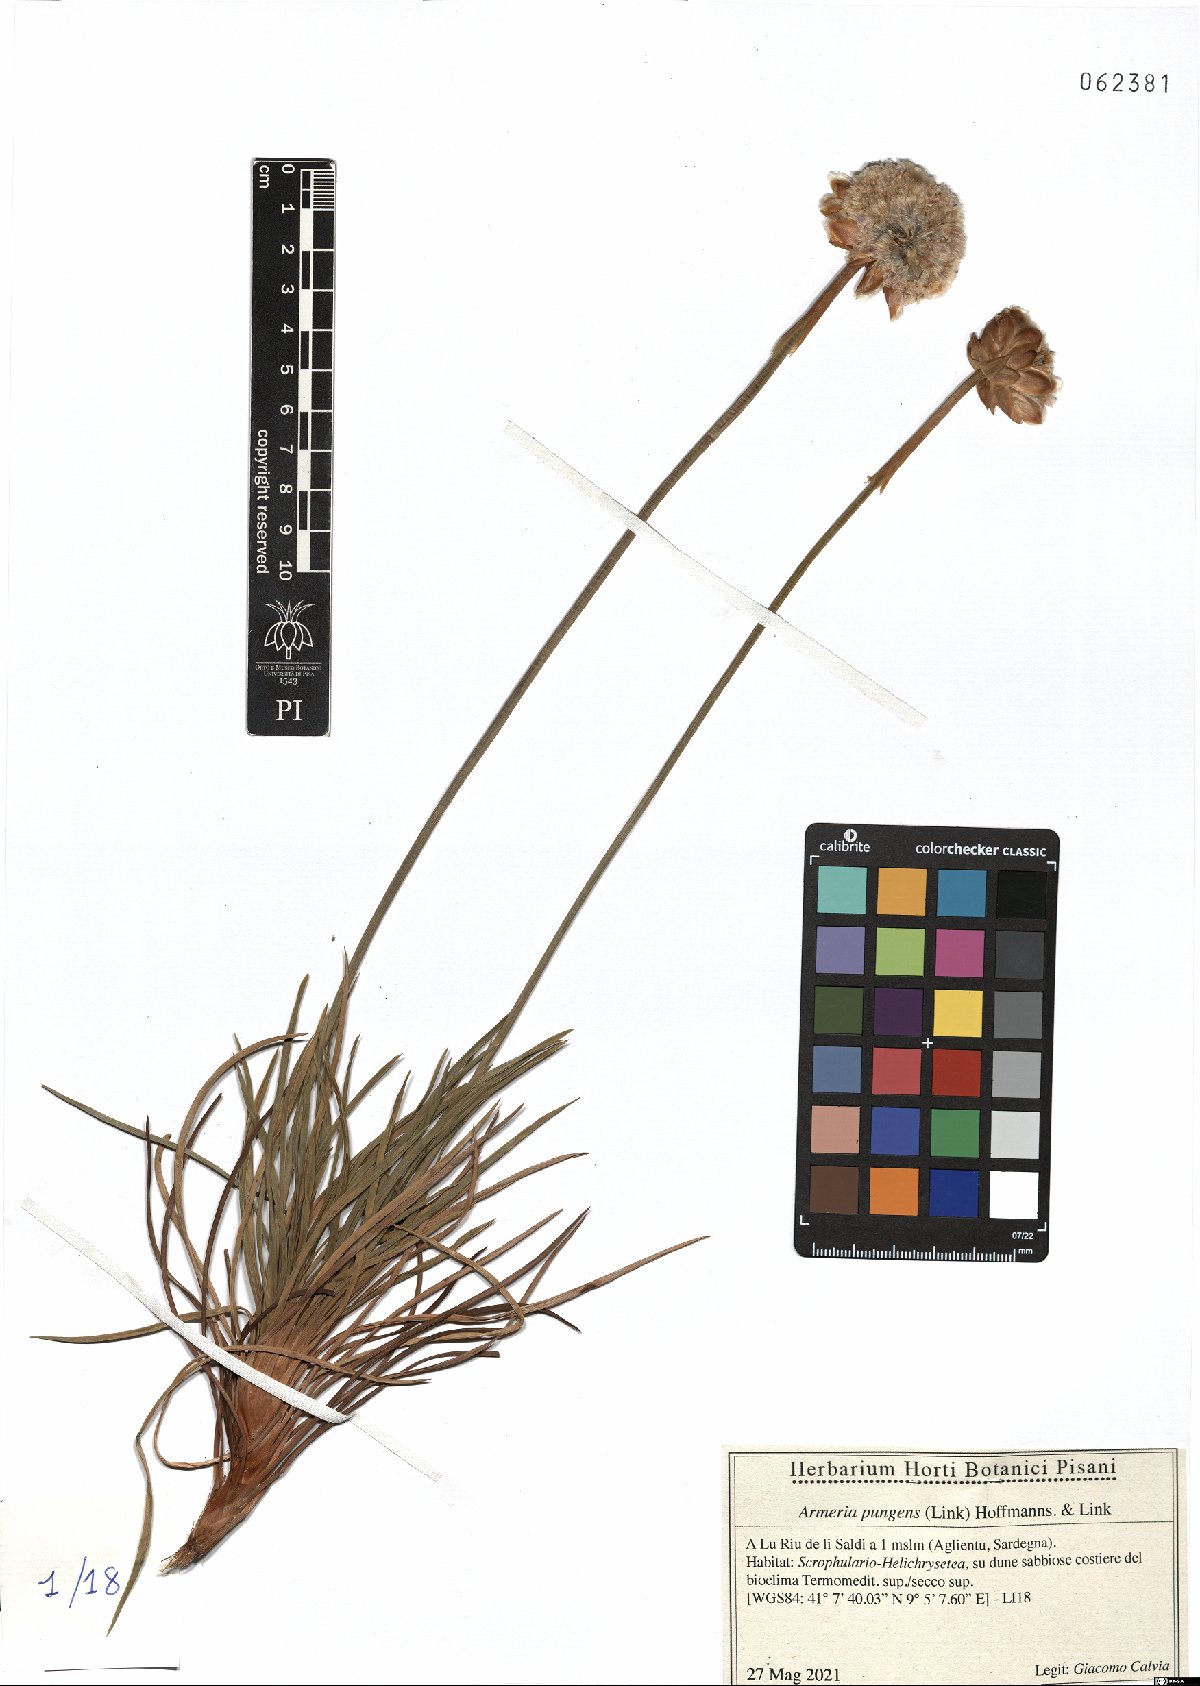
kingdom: Plantae
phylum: Tracheophyta
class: Magnoliopsida
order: Caryophyllales
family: Plumbaginaceae
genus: Armeria
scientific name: Armeria pungens
